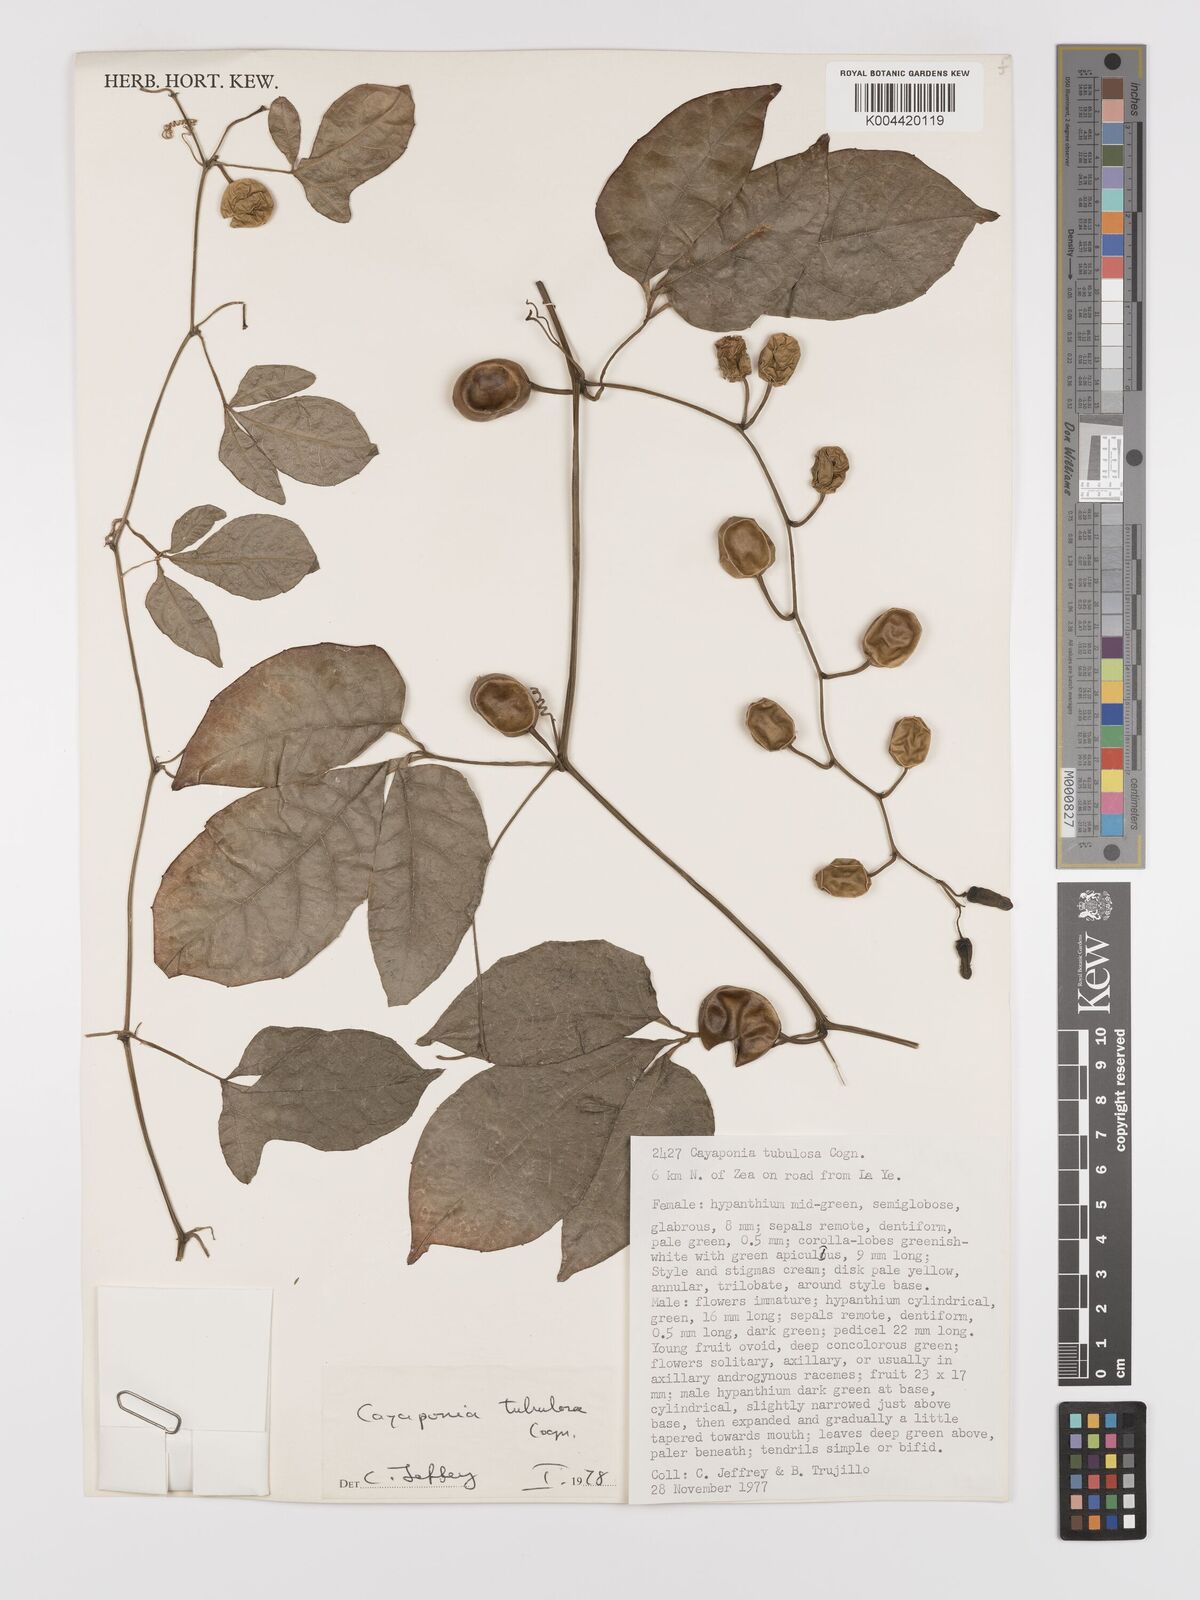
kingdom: Plantae
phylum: Tracheophyta
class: Magnoliopsida
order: Cucurbitales
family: Cucurbitaceae
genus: Cayaponia
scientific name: Cayaponia tubulosa
